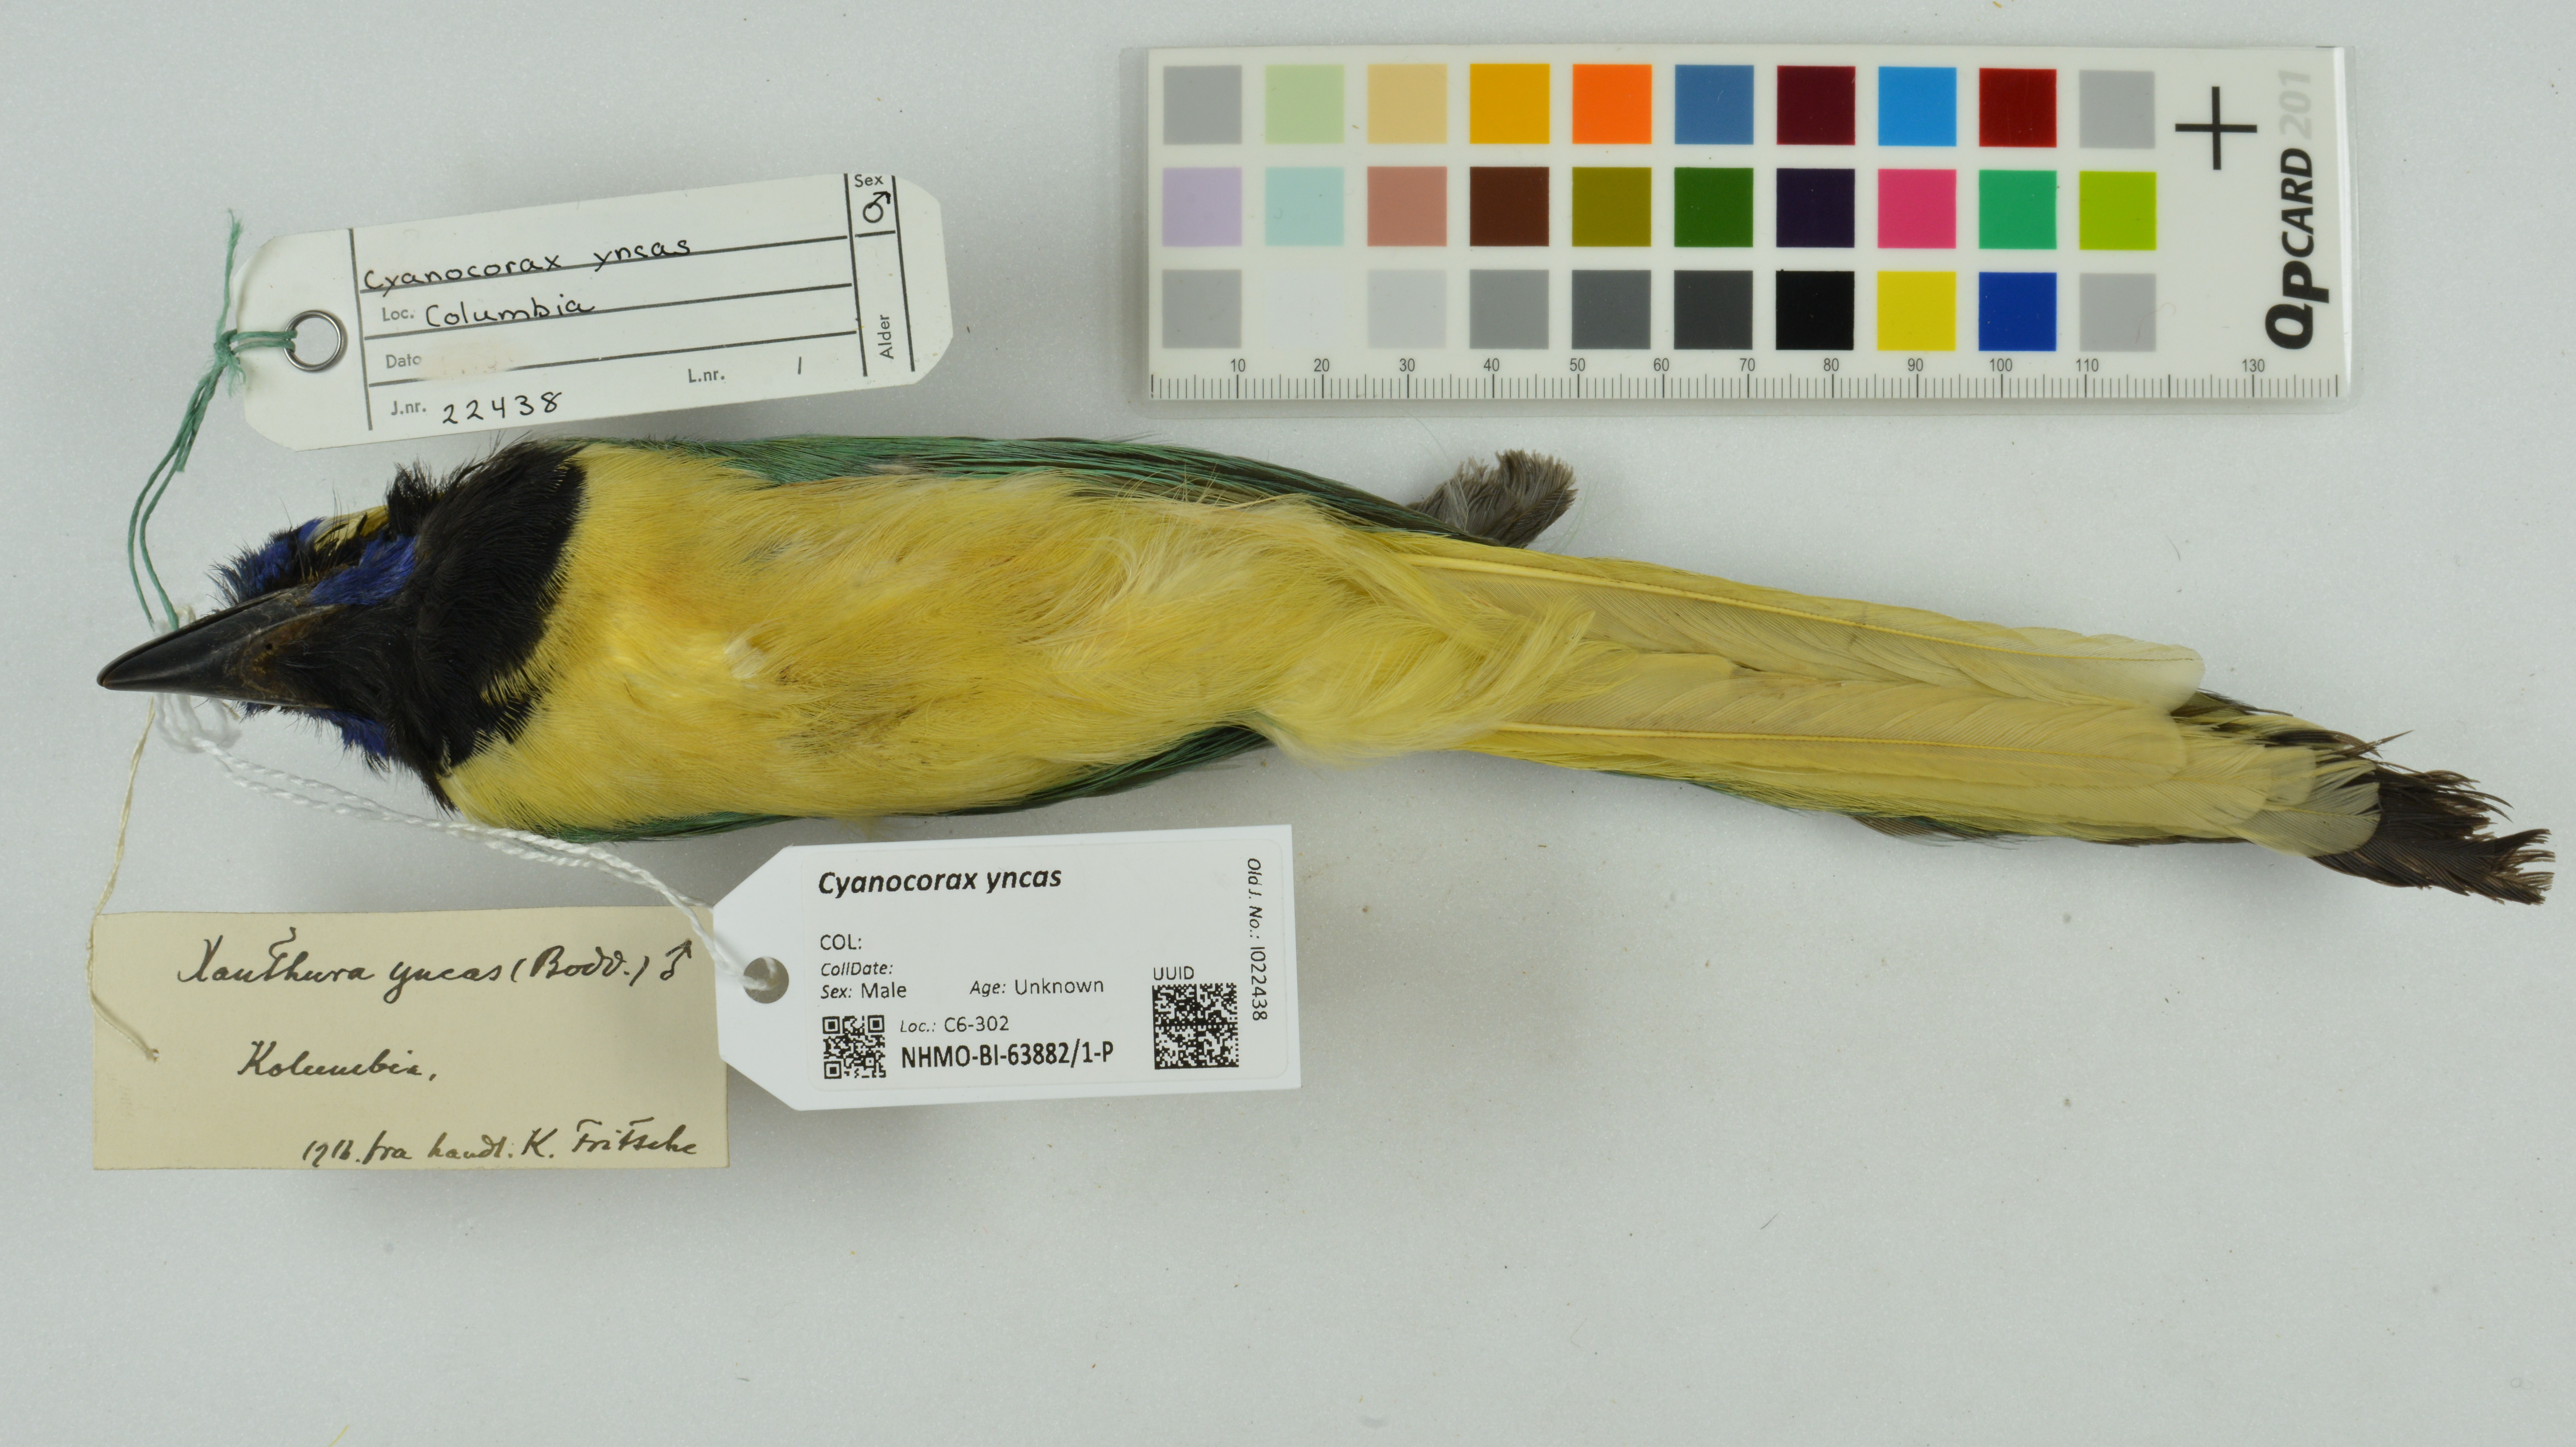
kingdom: Animalia
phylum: Chordata
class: Aves
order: Passeriformes
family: Corvidae
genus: Cyanocorax
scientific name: Cyanocorax yncas
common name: Green jay
